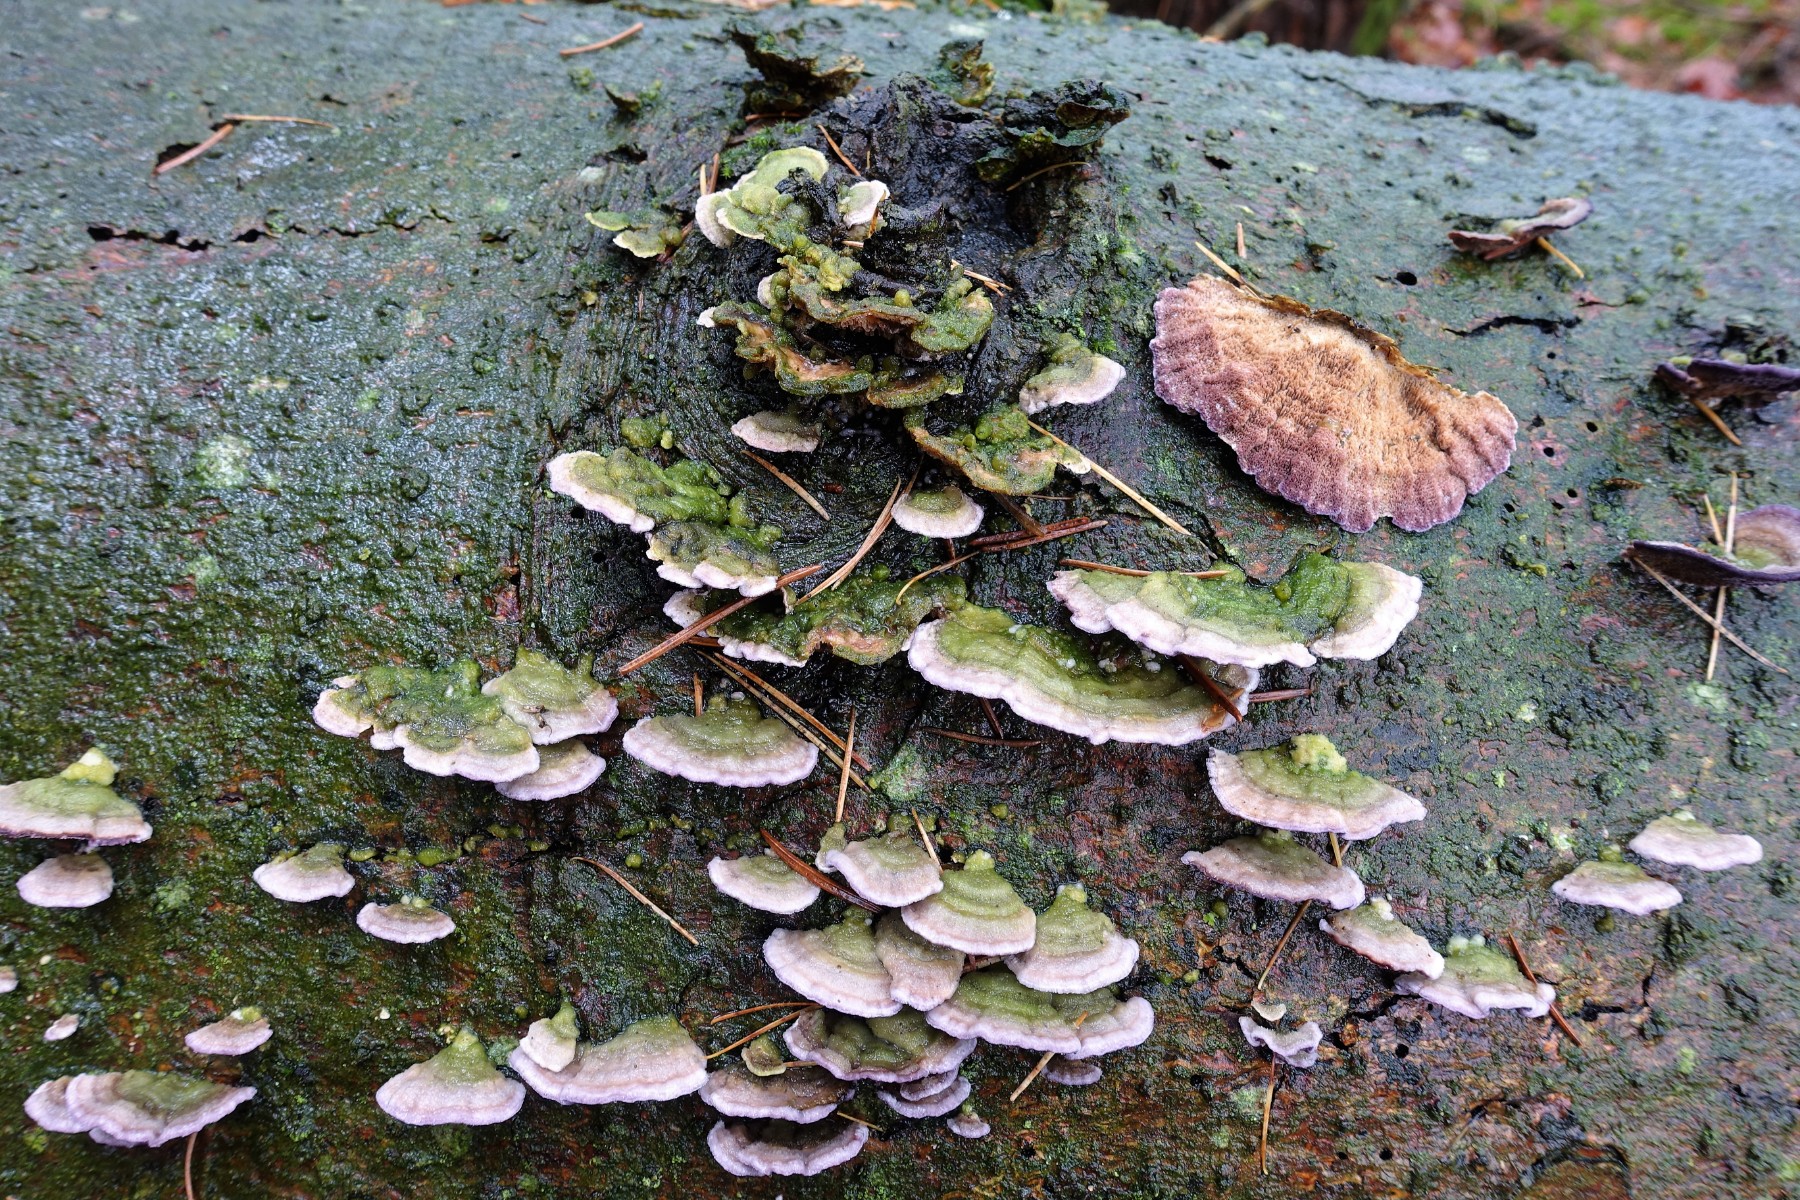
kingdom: Fungi
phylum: Basidiomycota
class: Agaricomycetes
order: Hymenochaetales
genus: Trichaptum
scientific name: Trichaptum abietinum
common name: almindelig violporesvamp
